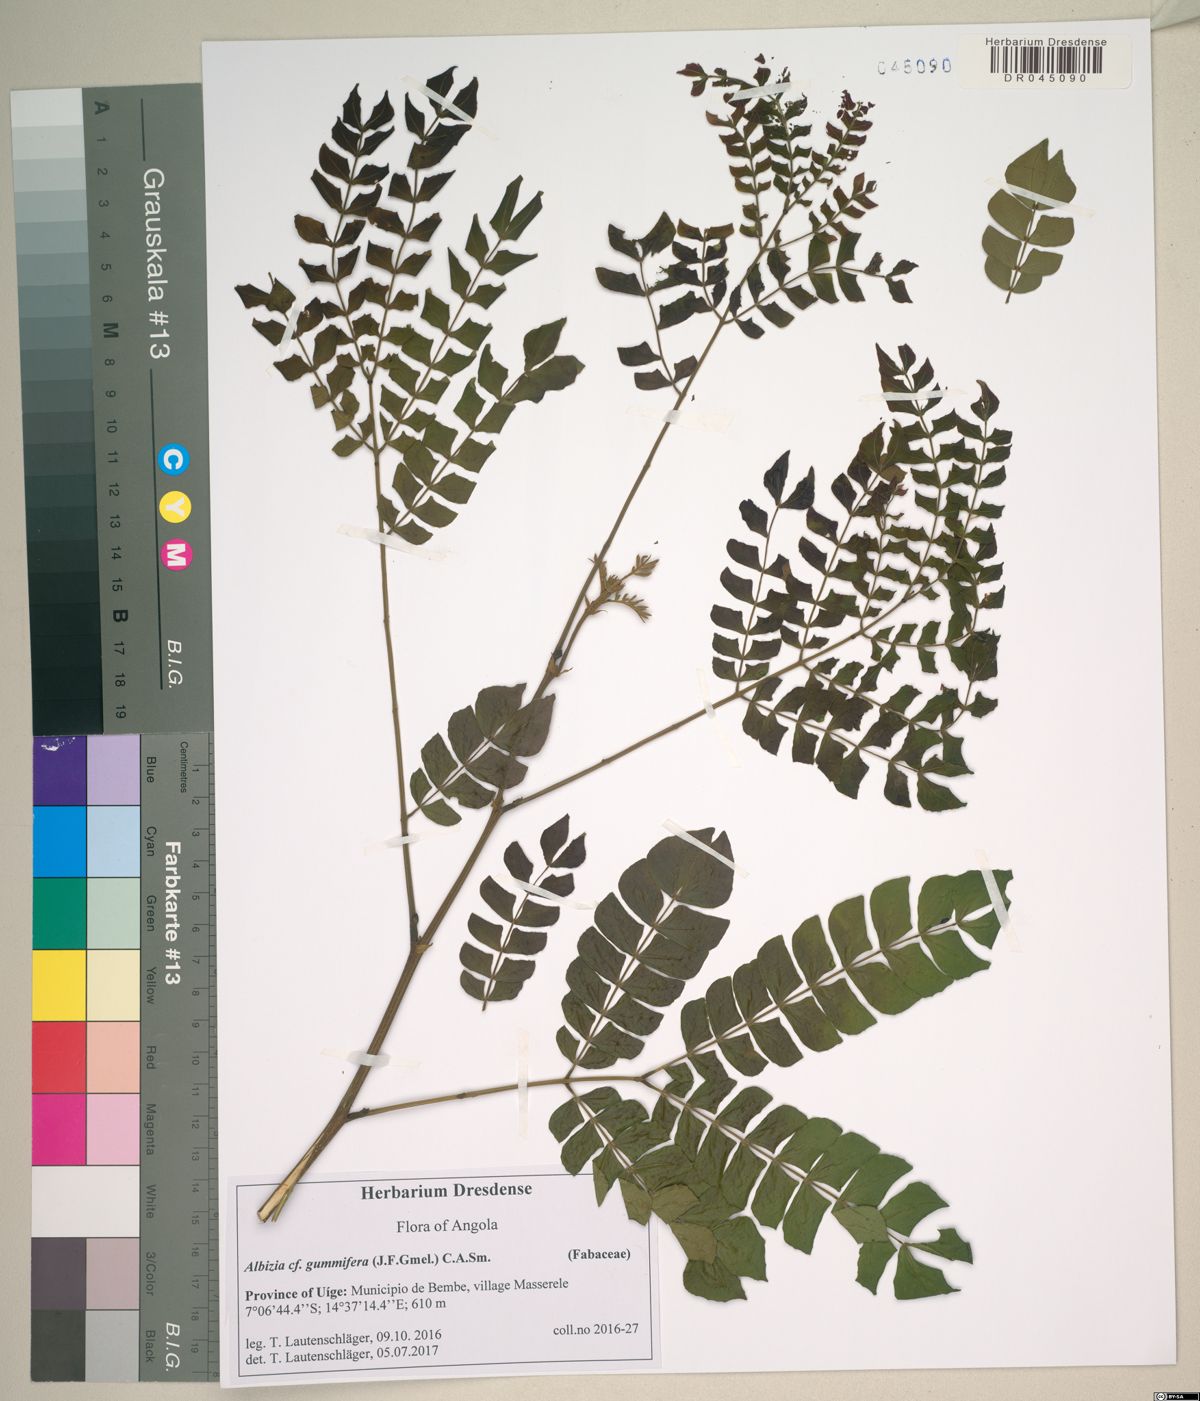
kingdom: Plantae
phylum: Tracheophyta
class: Magnoliopsida
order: Fabales
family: Fabaceae
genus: Albizia
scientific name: Albizia mossamedensis
